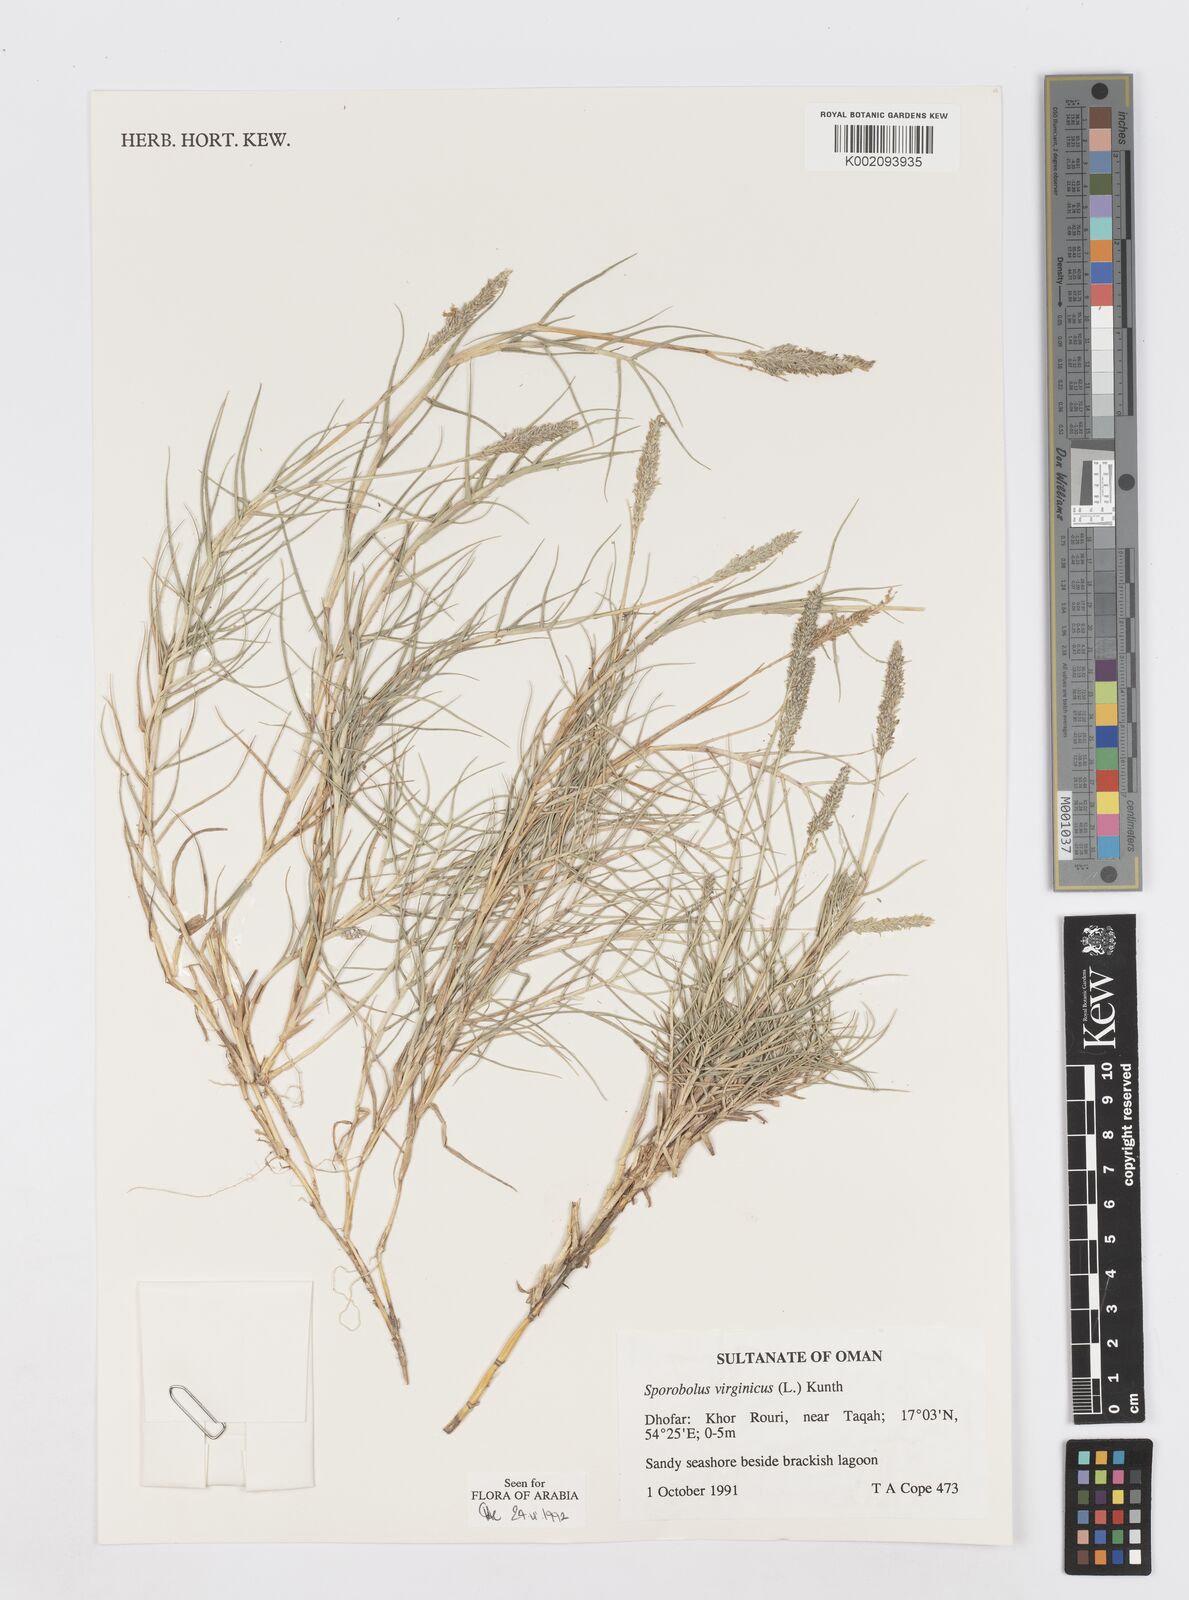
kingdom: Plantae
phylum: Tracheophyta
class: Liliopsida
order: Poales
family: Poaceae
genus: Sporobolus
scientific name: Sporobolus virginicus
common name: Beach dropseed
